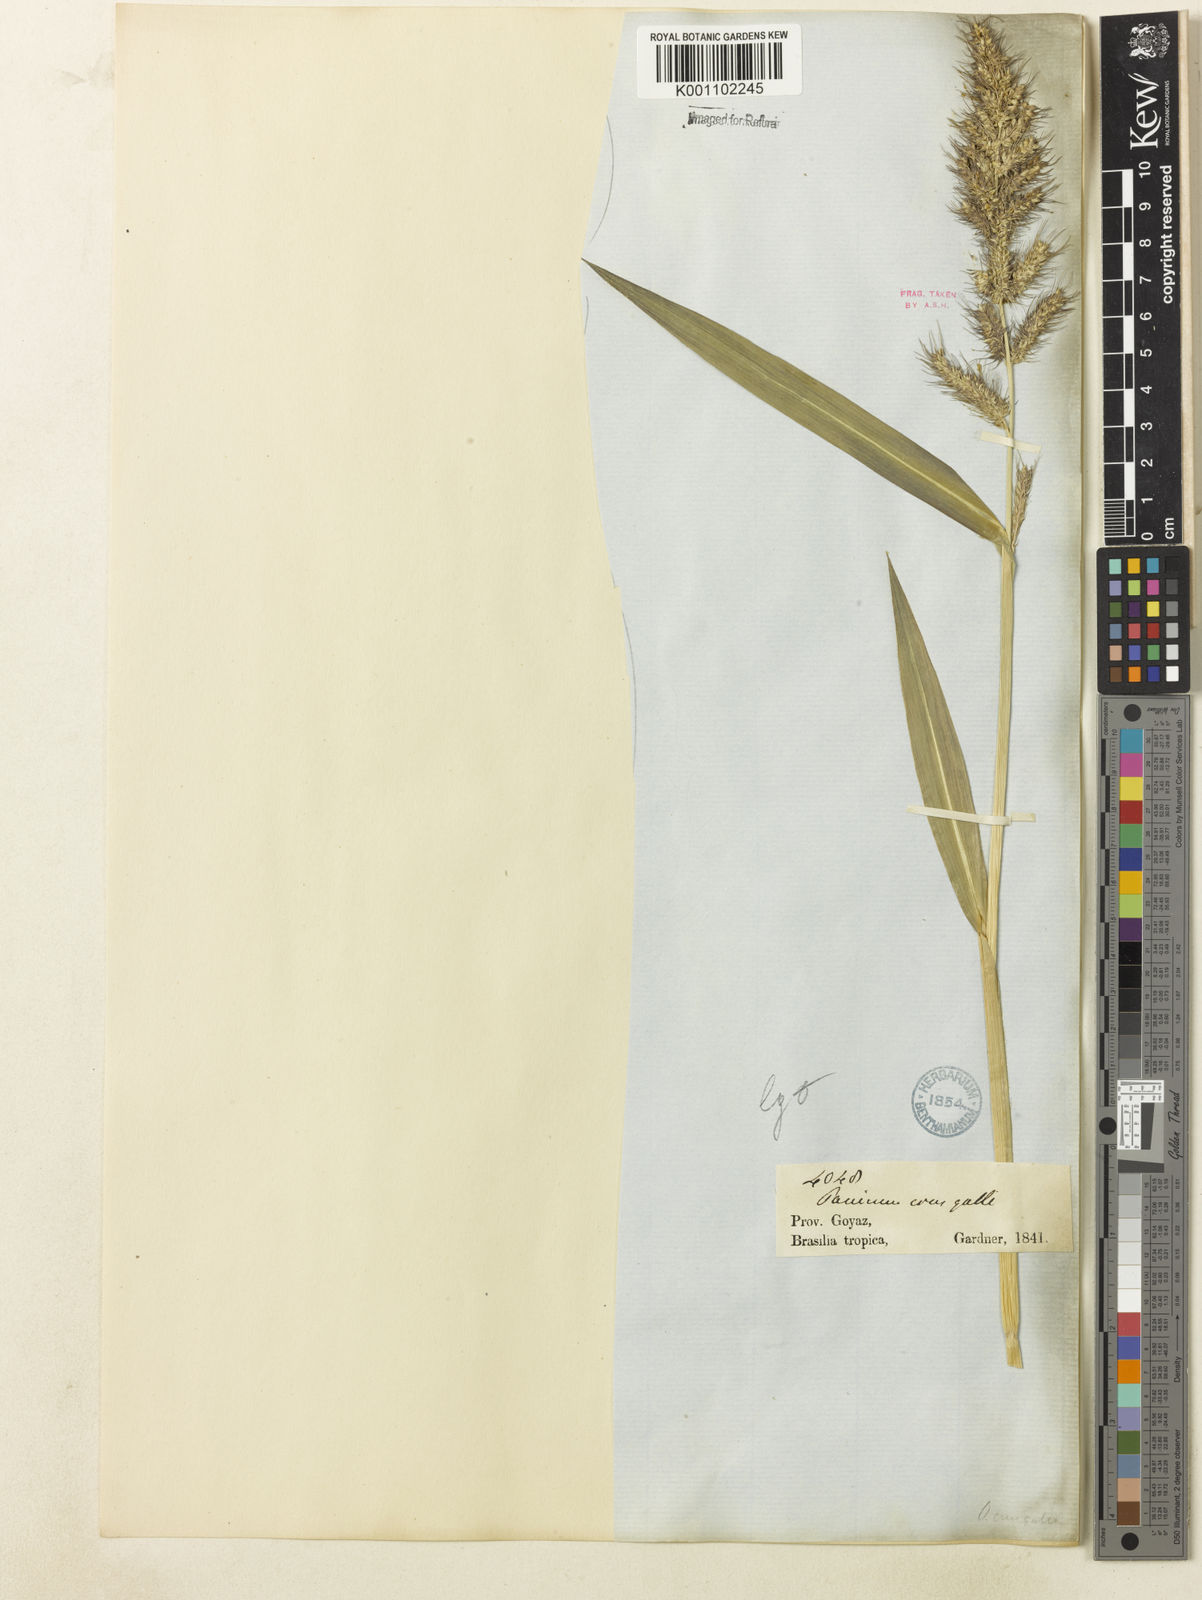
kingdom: Plantae
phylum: Tracheophyta
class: Liliopsida
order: Poales
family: Poaceae
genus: Echinochloa
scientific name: Echinochloa crus-galli
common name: Cockspur
